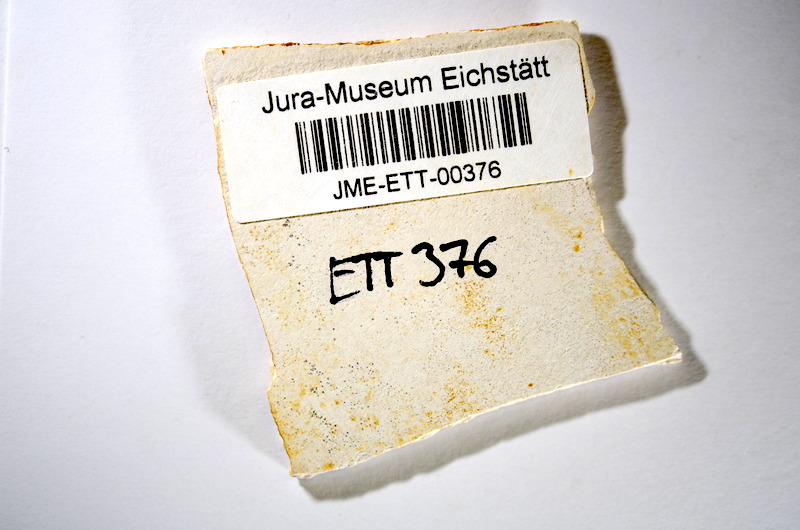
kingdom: Animalia
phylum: Chordata
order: Salmoniformes
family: Orthogonikleithridae
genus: Orthogonikleithrus
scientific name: Orthogonikleithrus hoelli
